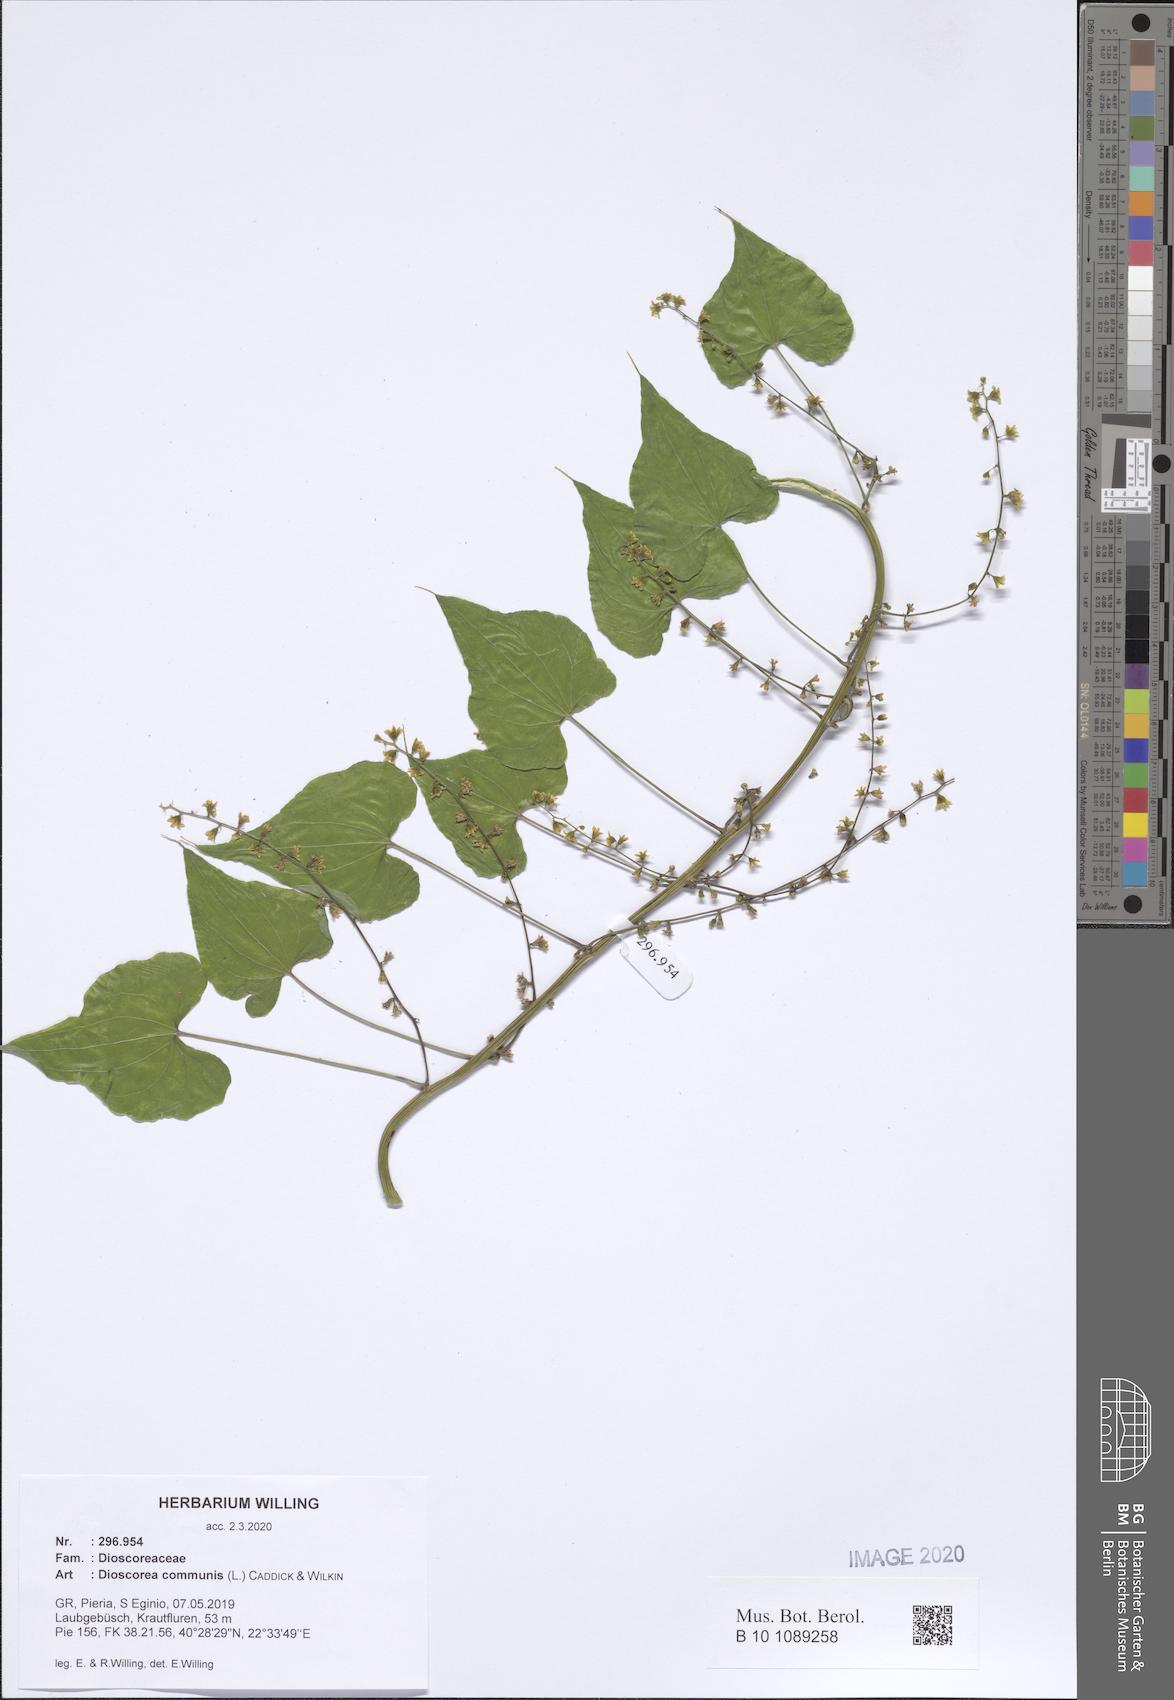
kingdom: Plantae
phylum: Tracheophyta
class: Liliopsida
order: Dioscoreales
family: Dioscoreaceae
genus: Dioscorea
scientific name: Dioscorea communis
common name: Black-bindweed
